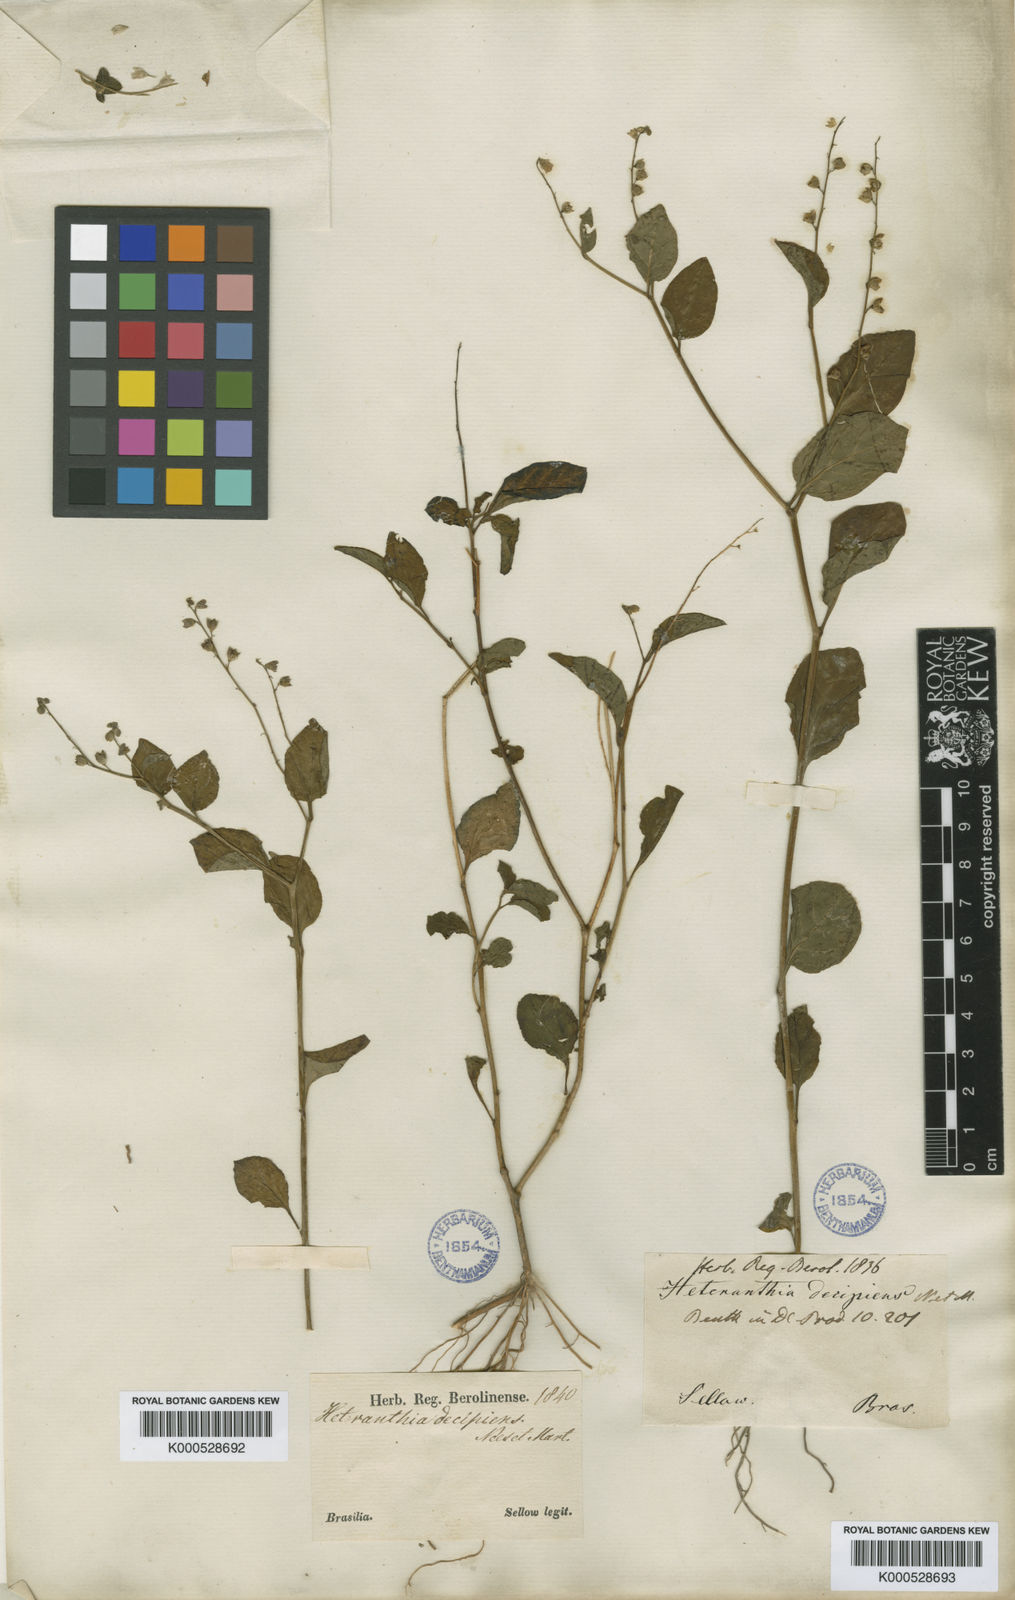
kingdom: Plantae
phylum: Tracheophyta
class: Magnoliopsida
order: Solanales
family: Solanaceae
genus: Heteranthia
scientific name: Heteranthia decipiens
